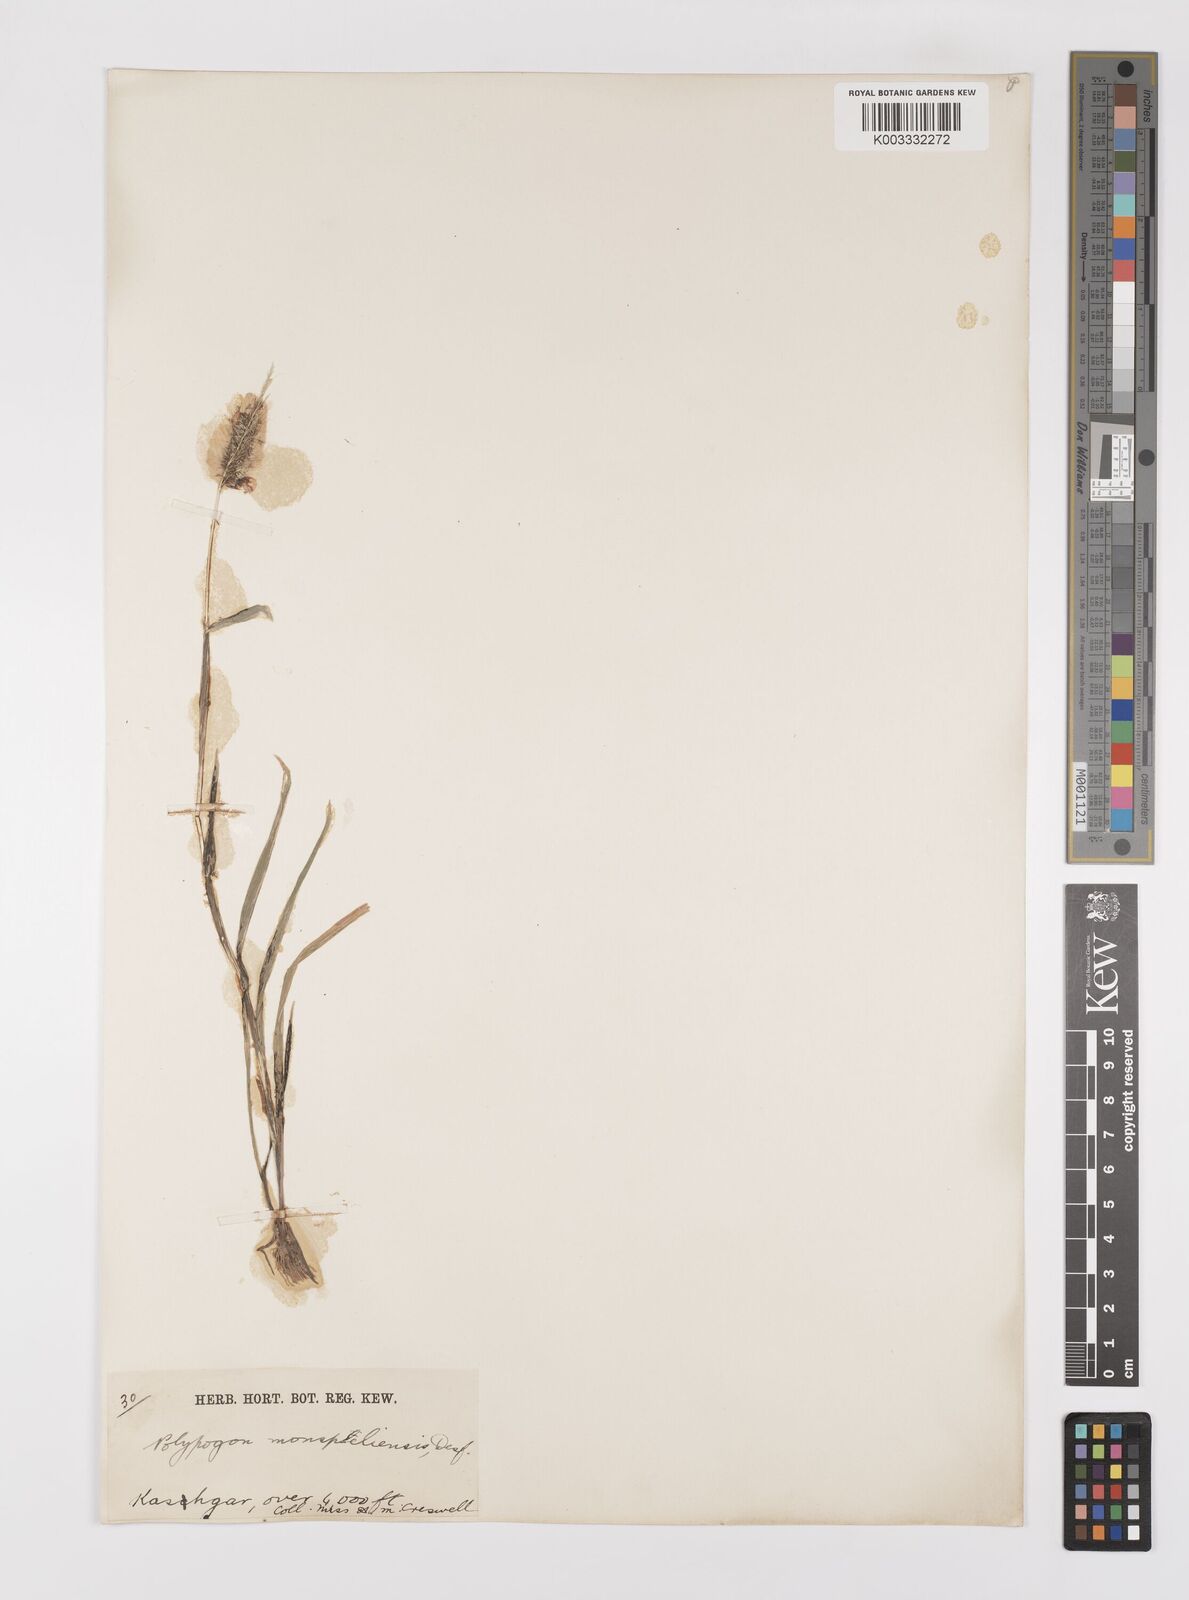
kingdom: Plantae
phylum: Tracheophyta
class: Liliopsida
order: Poales
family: Poaceae
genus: Polypogon
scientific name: Polypogon monspeliensis
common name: Annual rabbitsfoot grass
